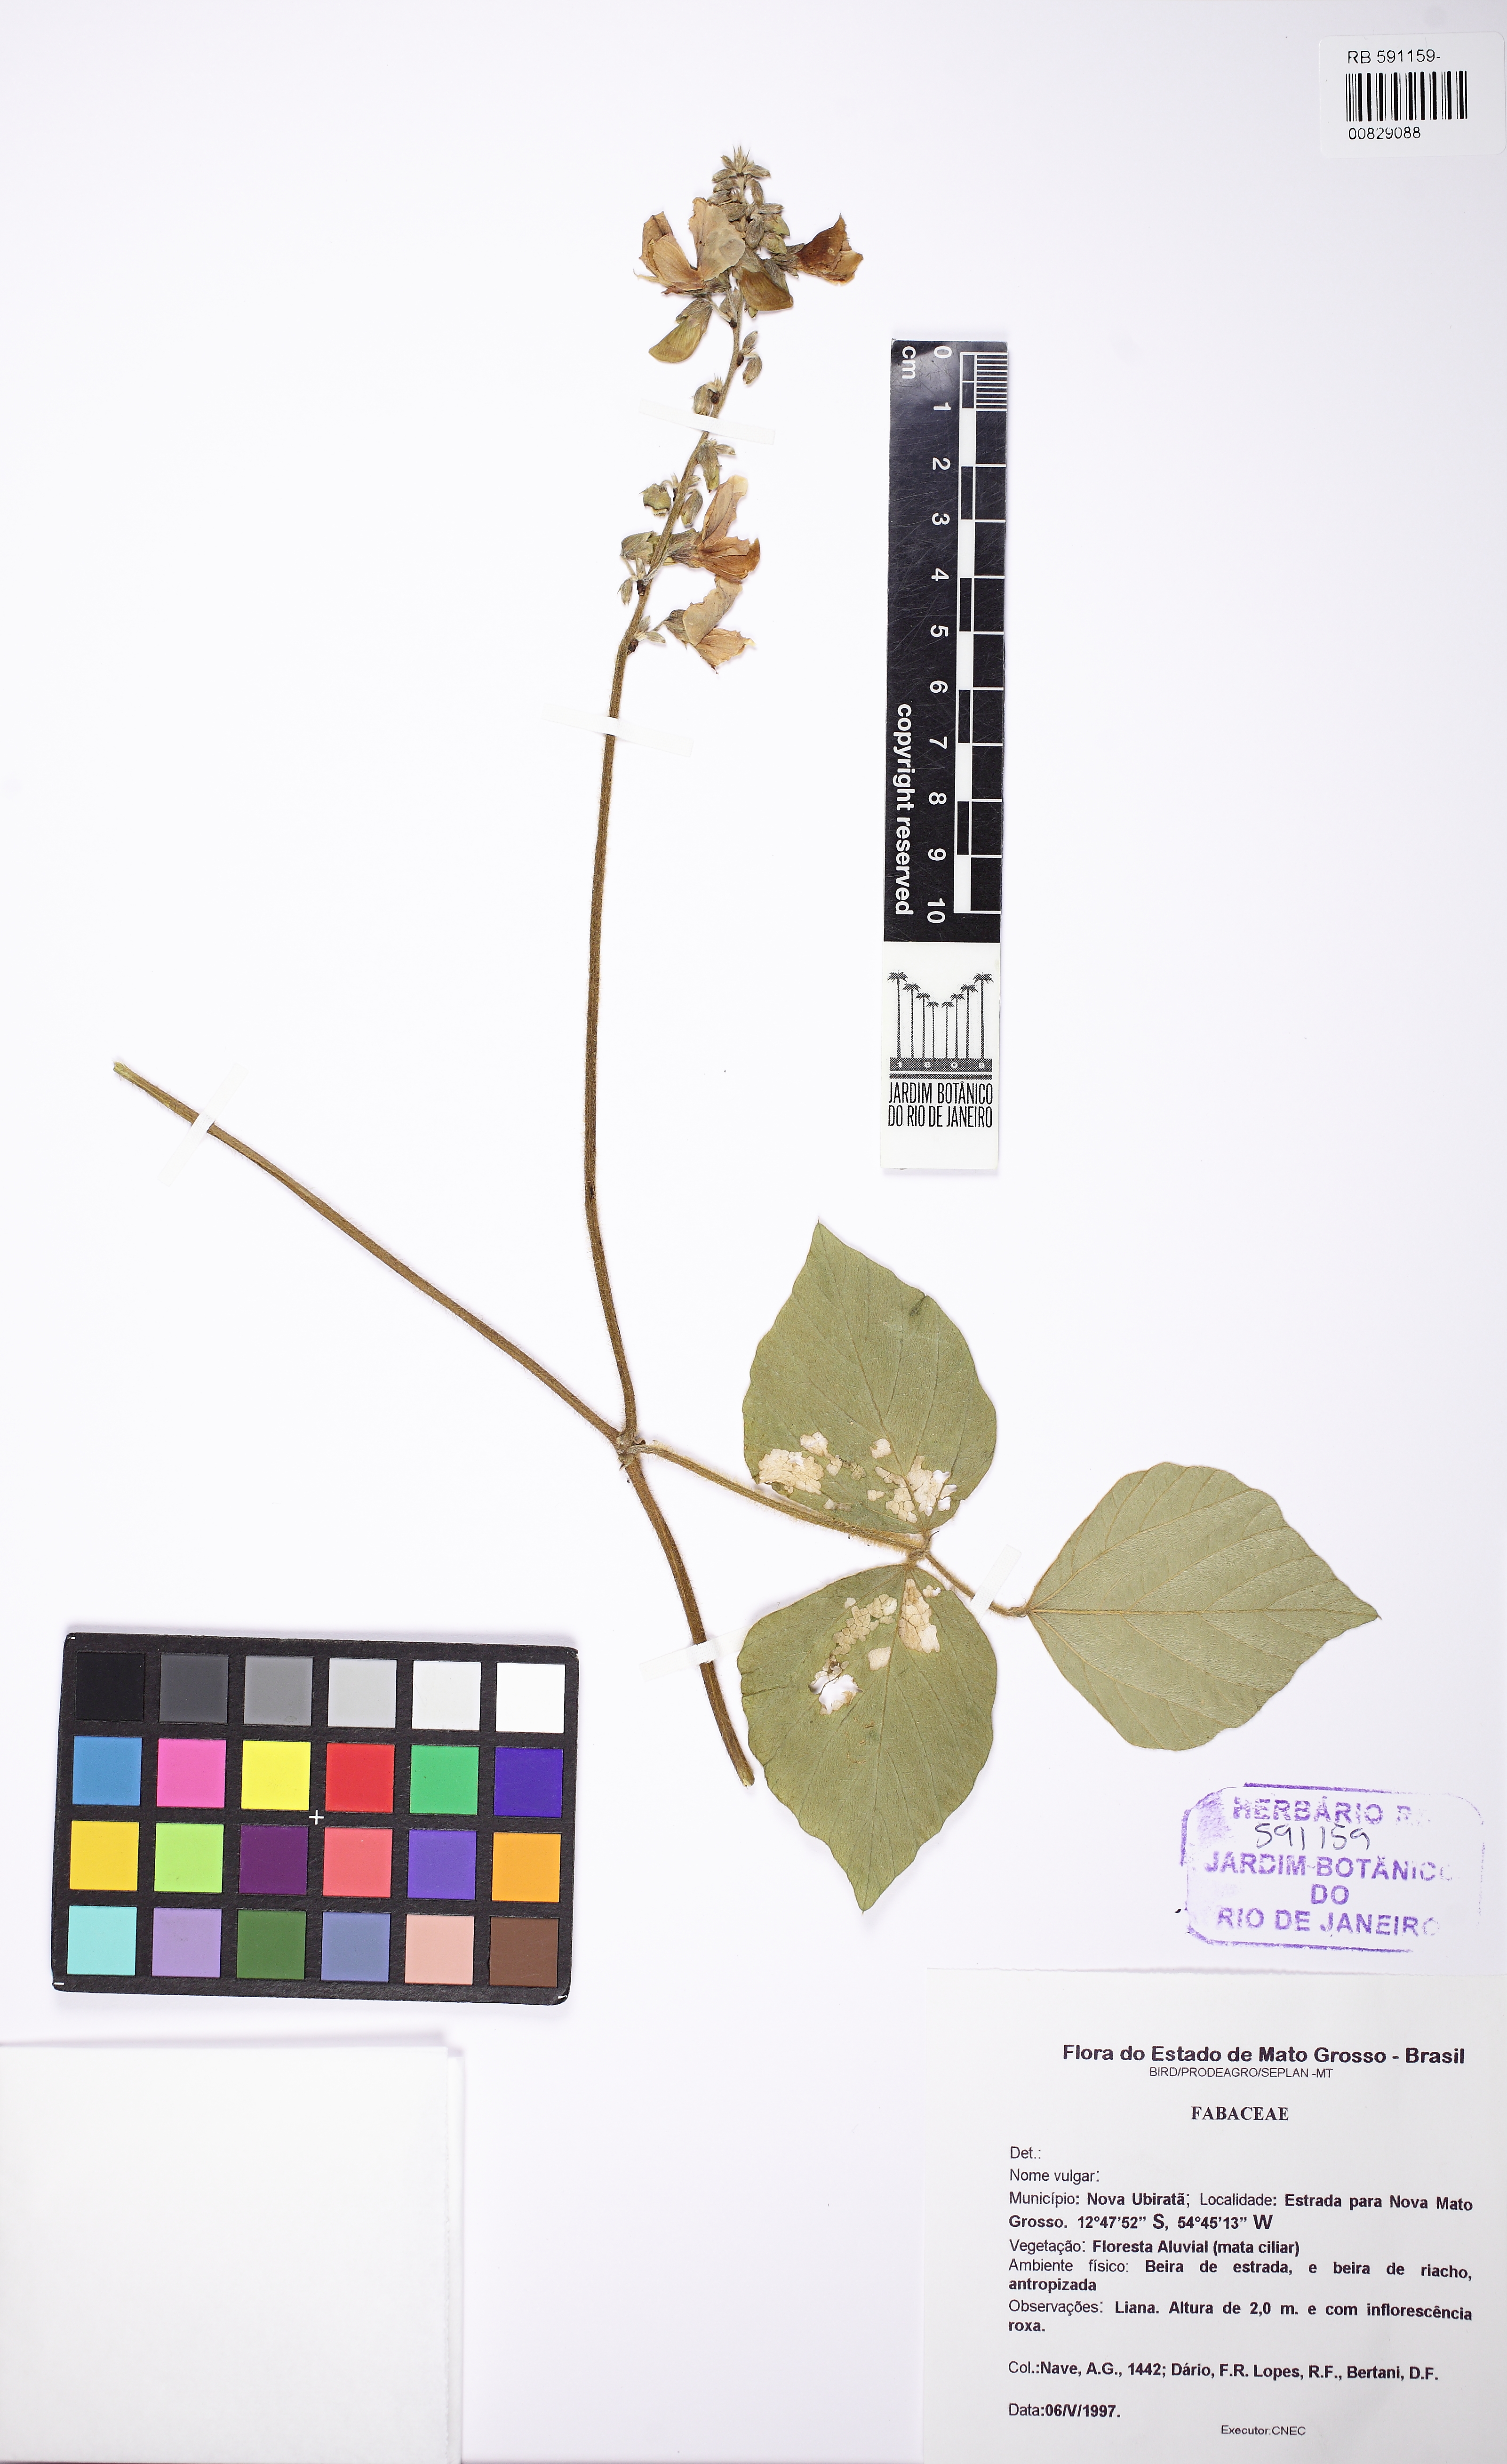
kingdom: Plantae
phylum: Tracheophyta
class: Magnoliopsida
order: Fabales
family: Fabaceae
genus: Neustanthus
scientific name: Neustanthus phaseoloides
